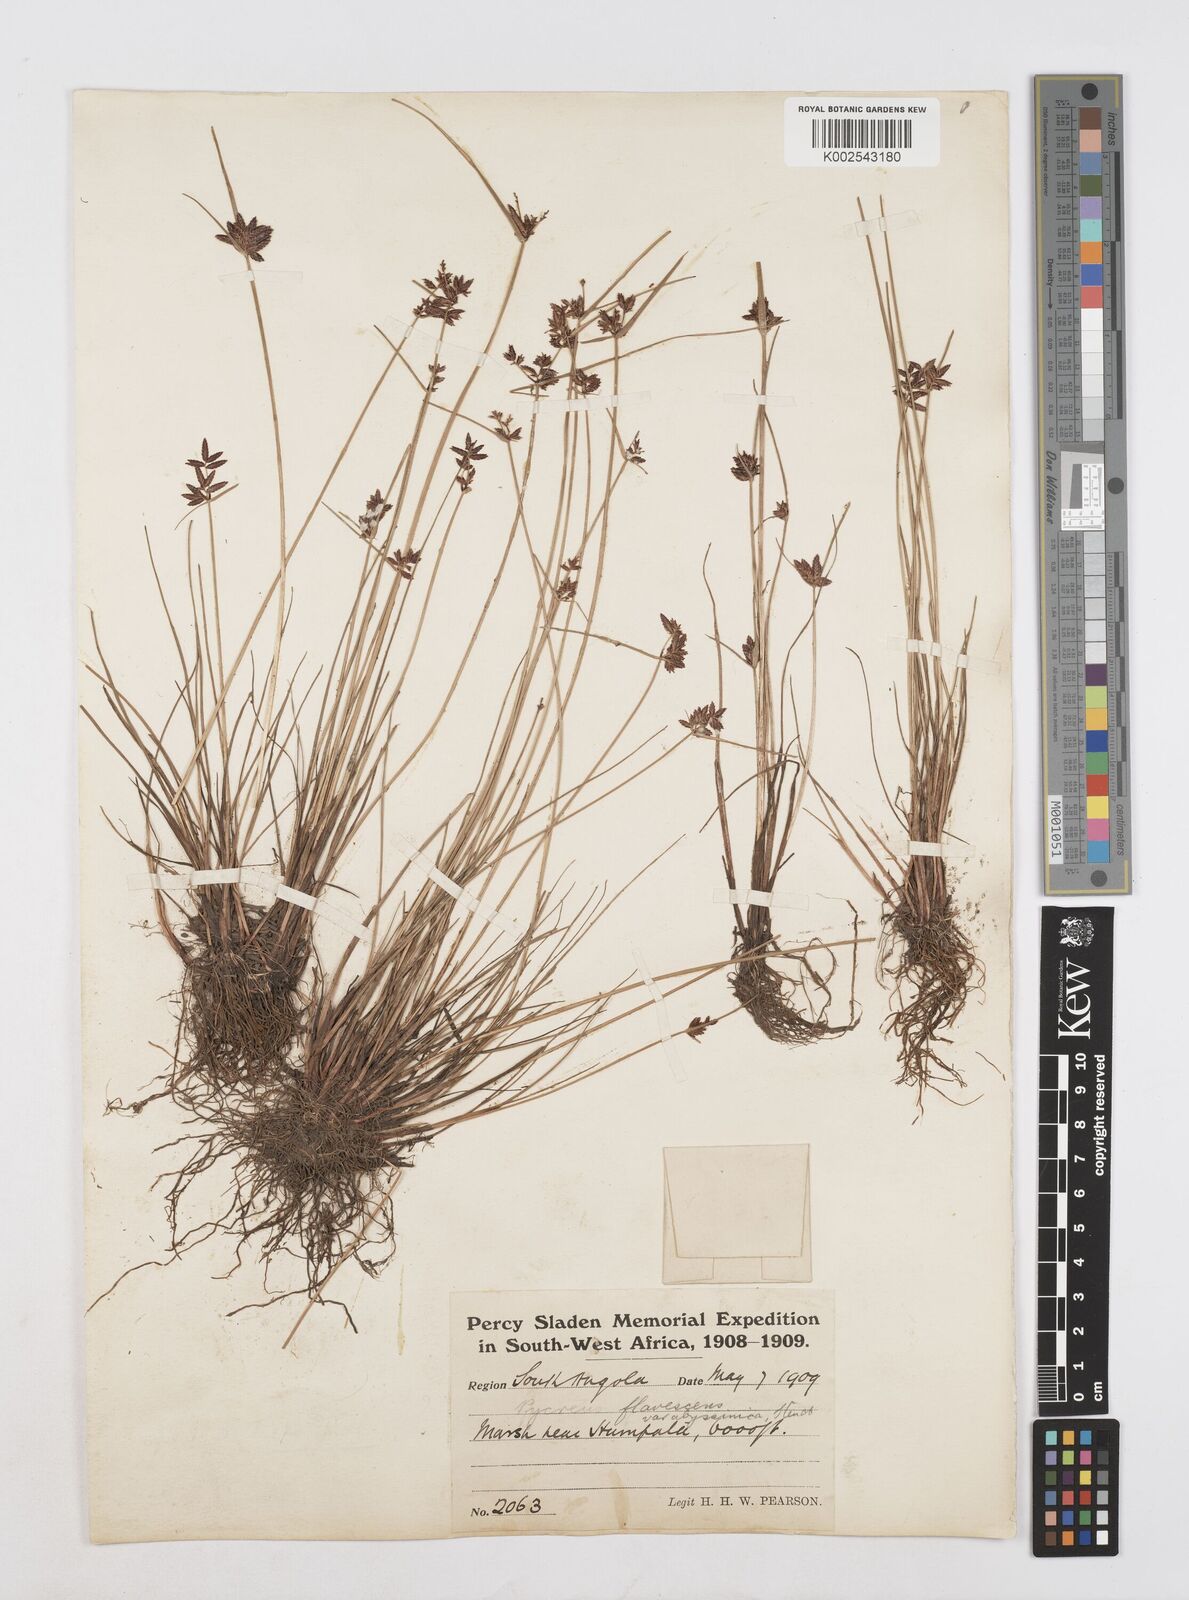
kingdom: Plantae
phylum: Tracheophyta
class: Liliopsida
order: Poales
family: Cyperaceae
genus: Cyperus
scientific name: Cyperus flavescens
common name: Yellow galingale
